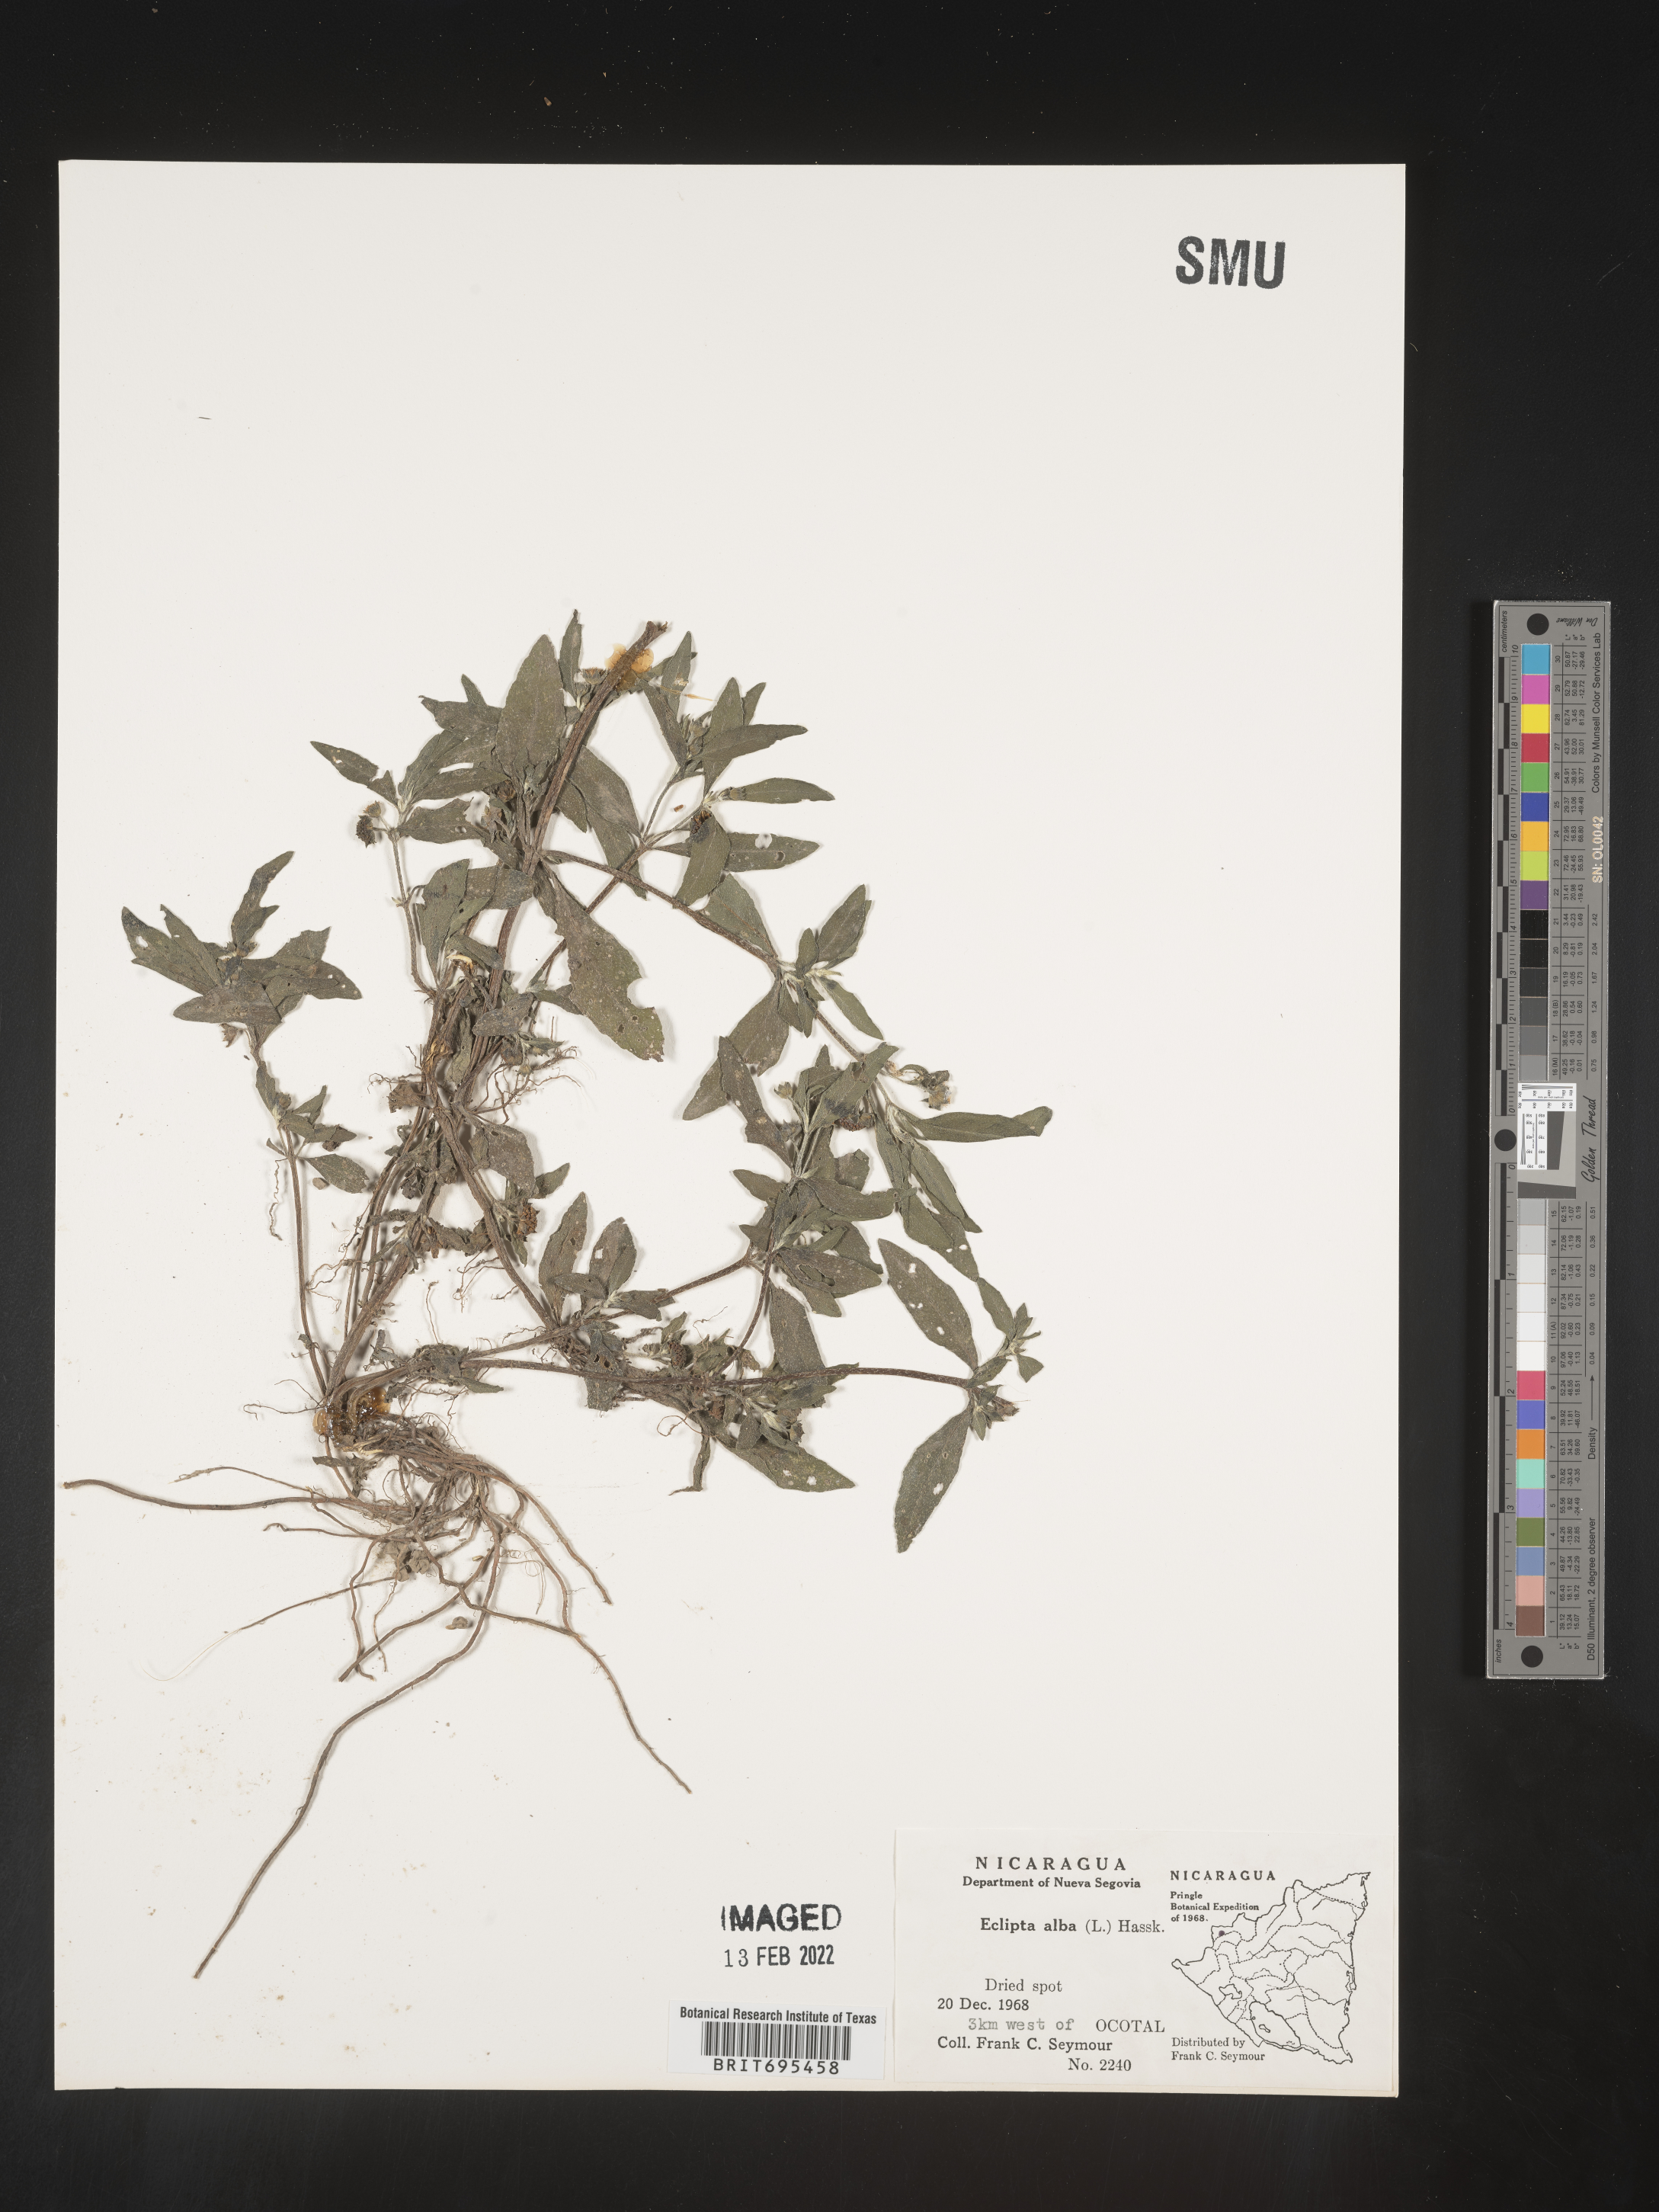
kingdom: Plantae
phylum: Tracheophyta
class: Magnoliopsida
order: Asterales
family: Asteraceae
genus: Eclipta
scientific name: Eclipta
